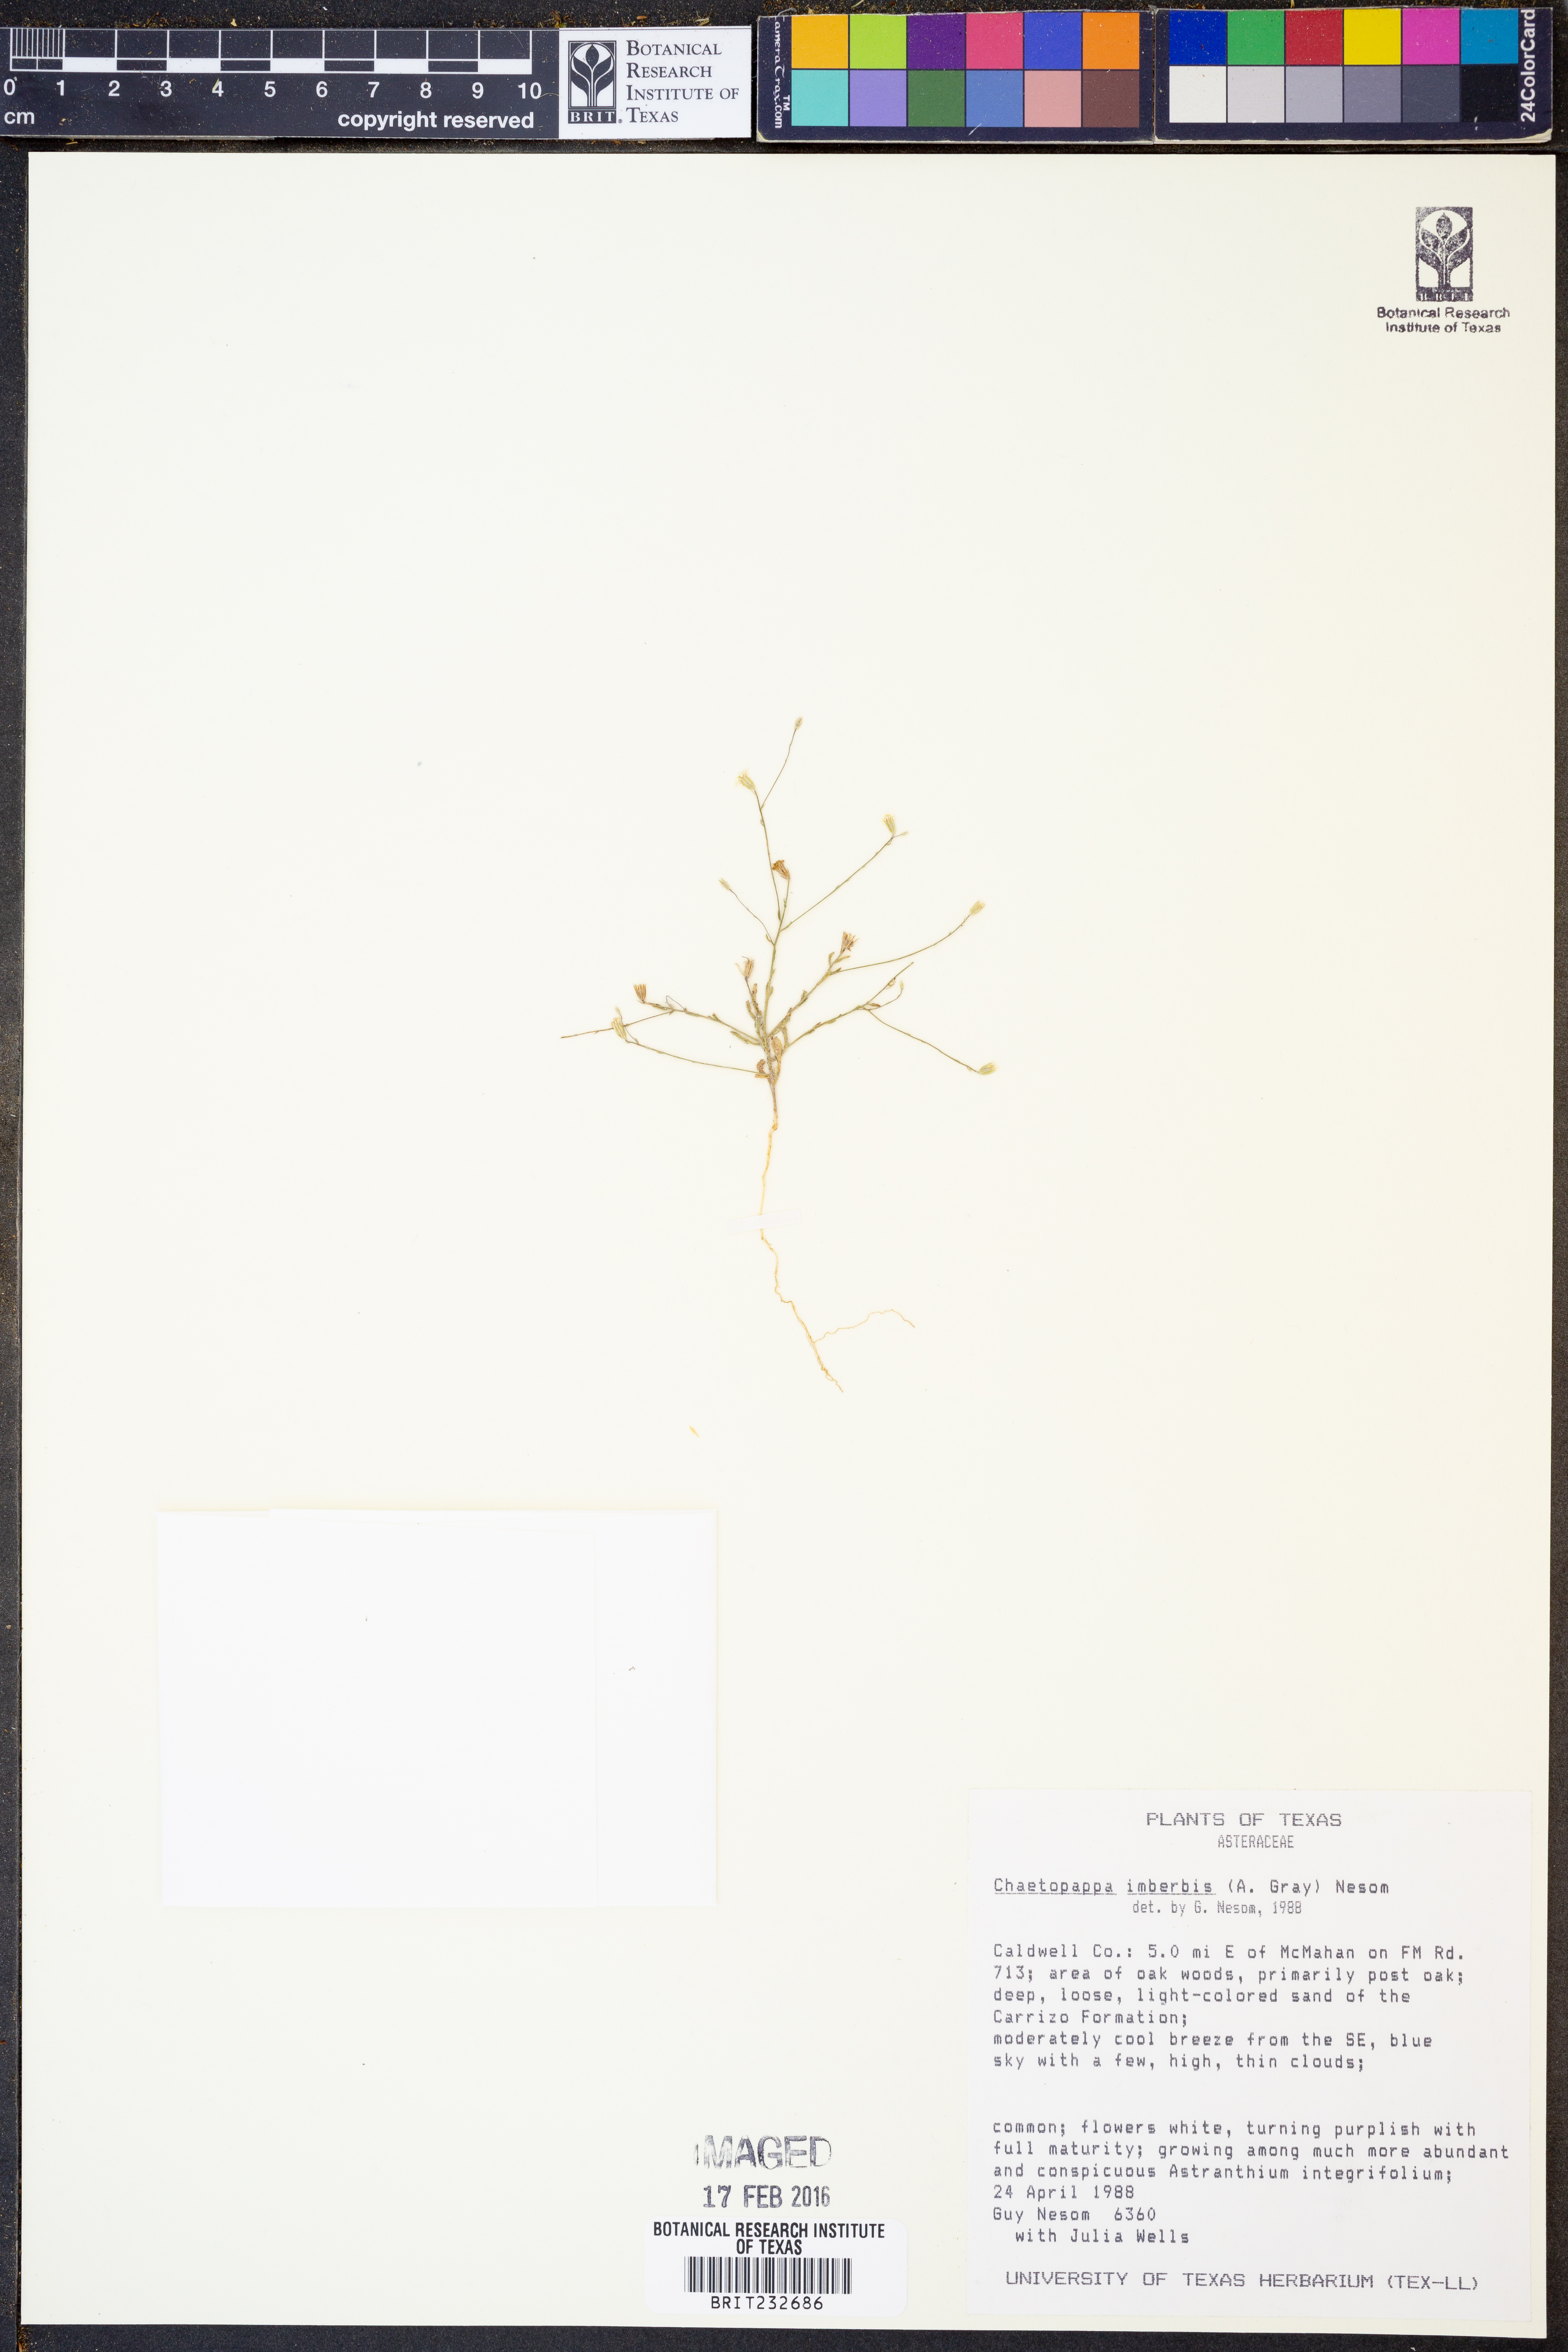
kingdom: Plantae
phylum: Tracheophyta
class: Magnoliopsida
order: Asterales
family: Asteraceae
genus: Chaetopappa
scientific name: Chaetopappa imberbis
